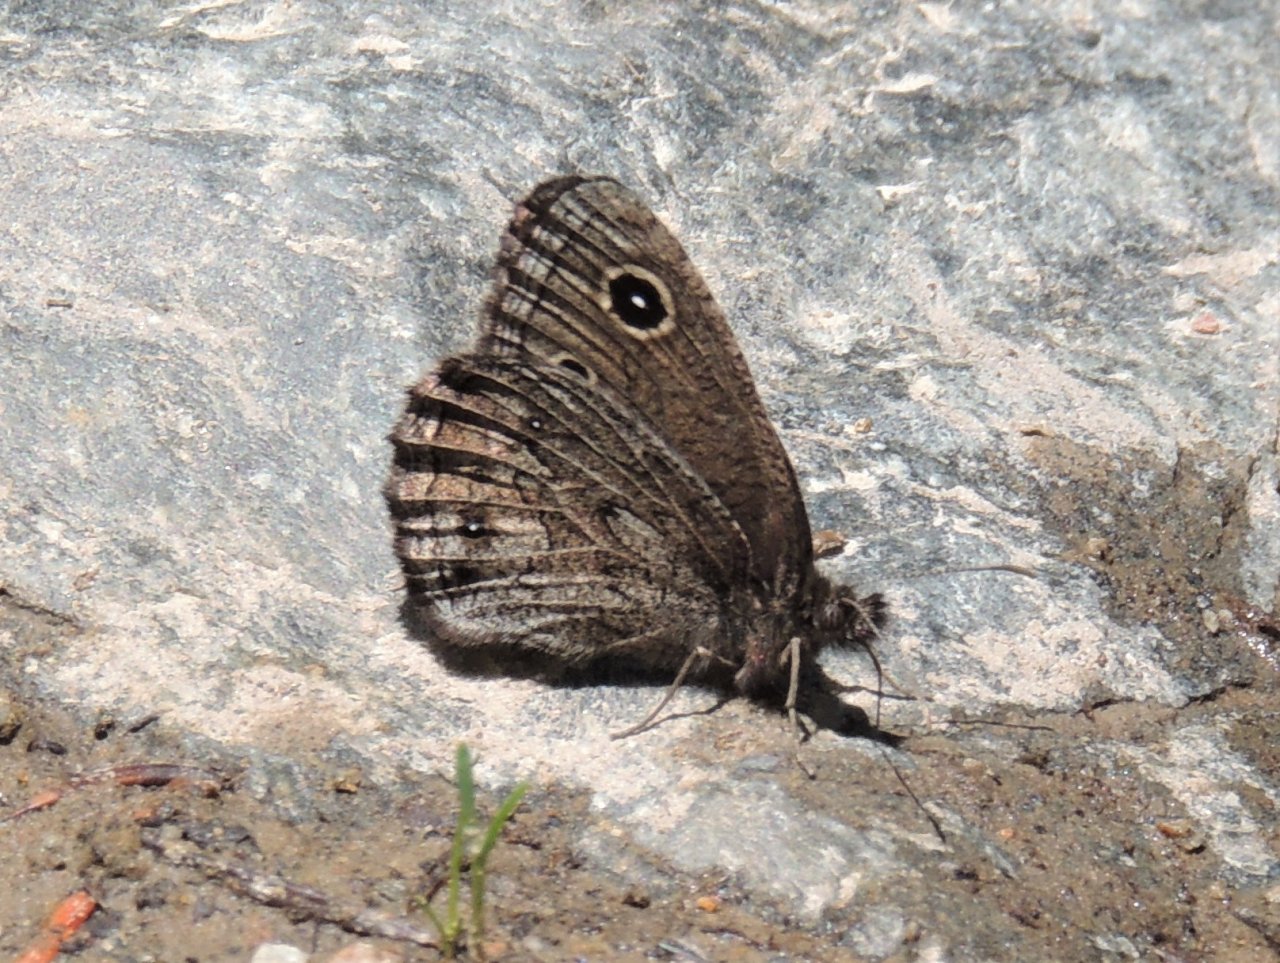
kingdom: Animalia
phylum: Arthropoda
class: Insecta
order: Lepidoptera
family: Nymphalidae
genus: Cercyonis
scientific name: Cercyonis oetus
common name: Small Wood-Nymph
